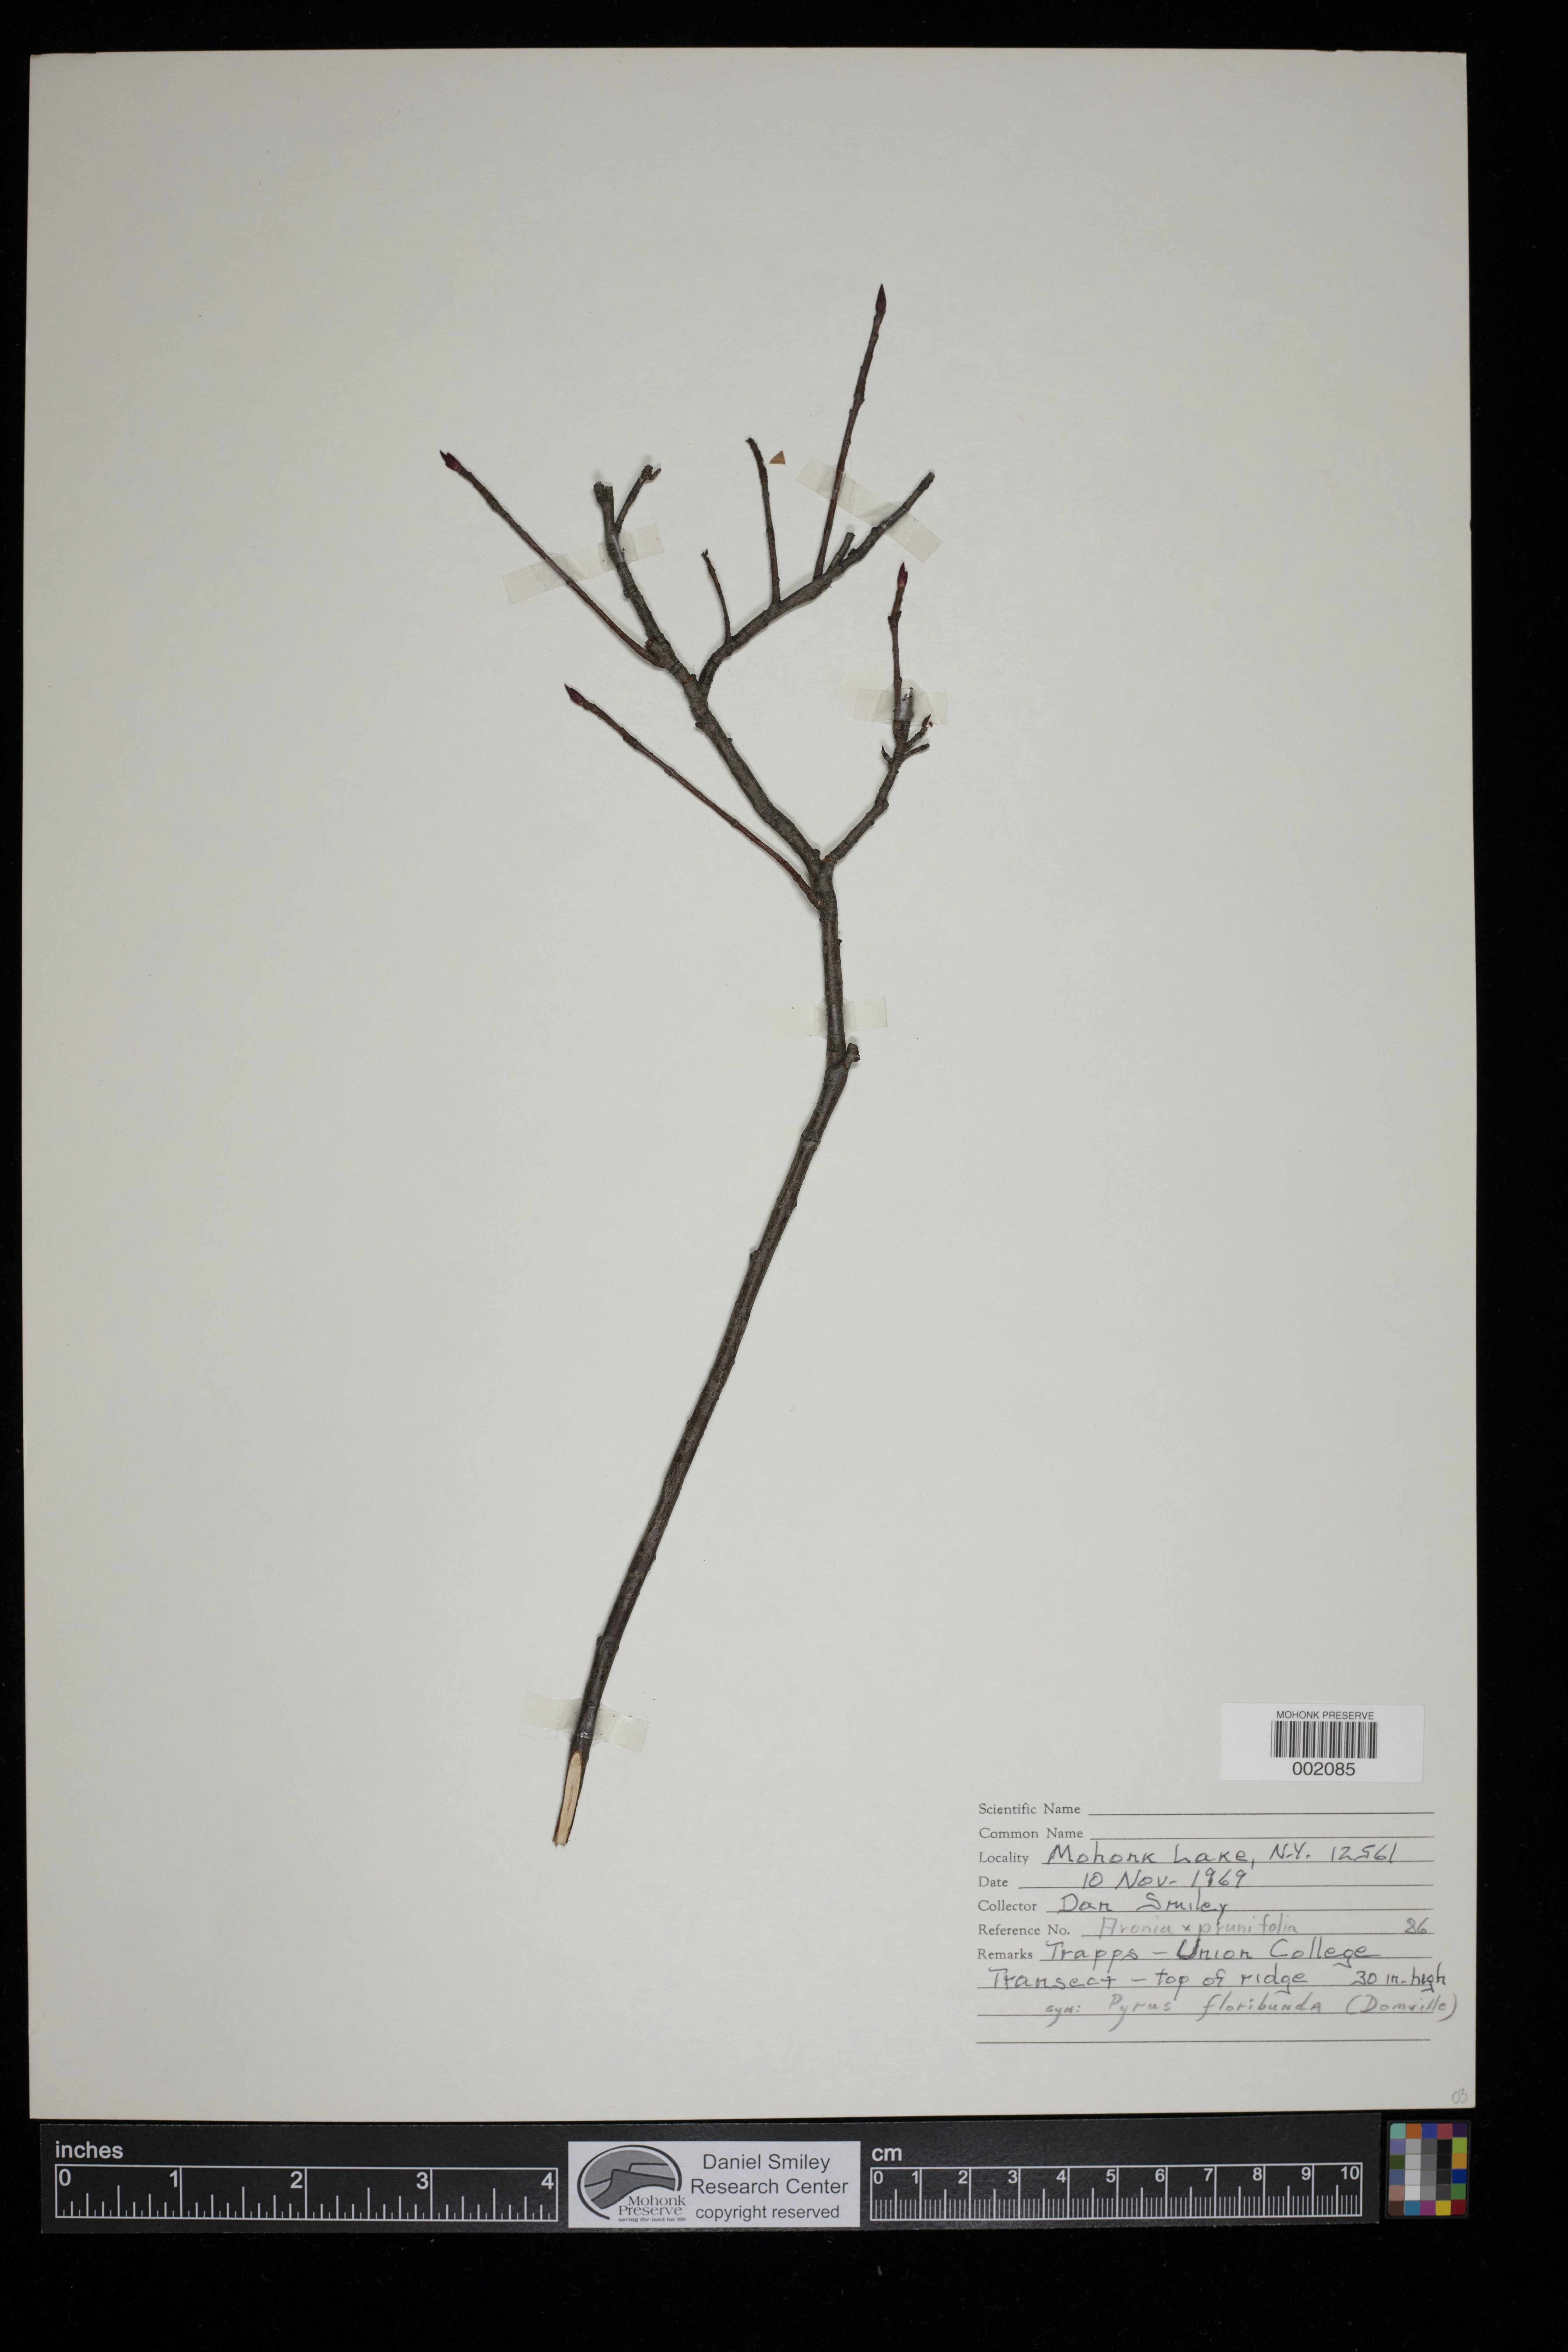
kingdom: Plantae
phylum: Tracheophyta
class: Magnoliopsida
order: Rosales
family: Rosaceae
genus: Aronia
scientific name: Aronia prunifolia
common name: Purple chokeberry
